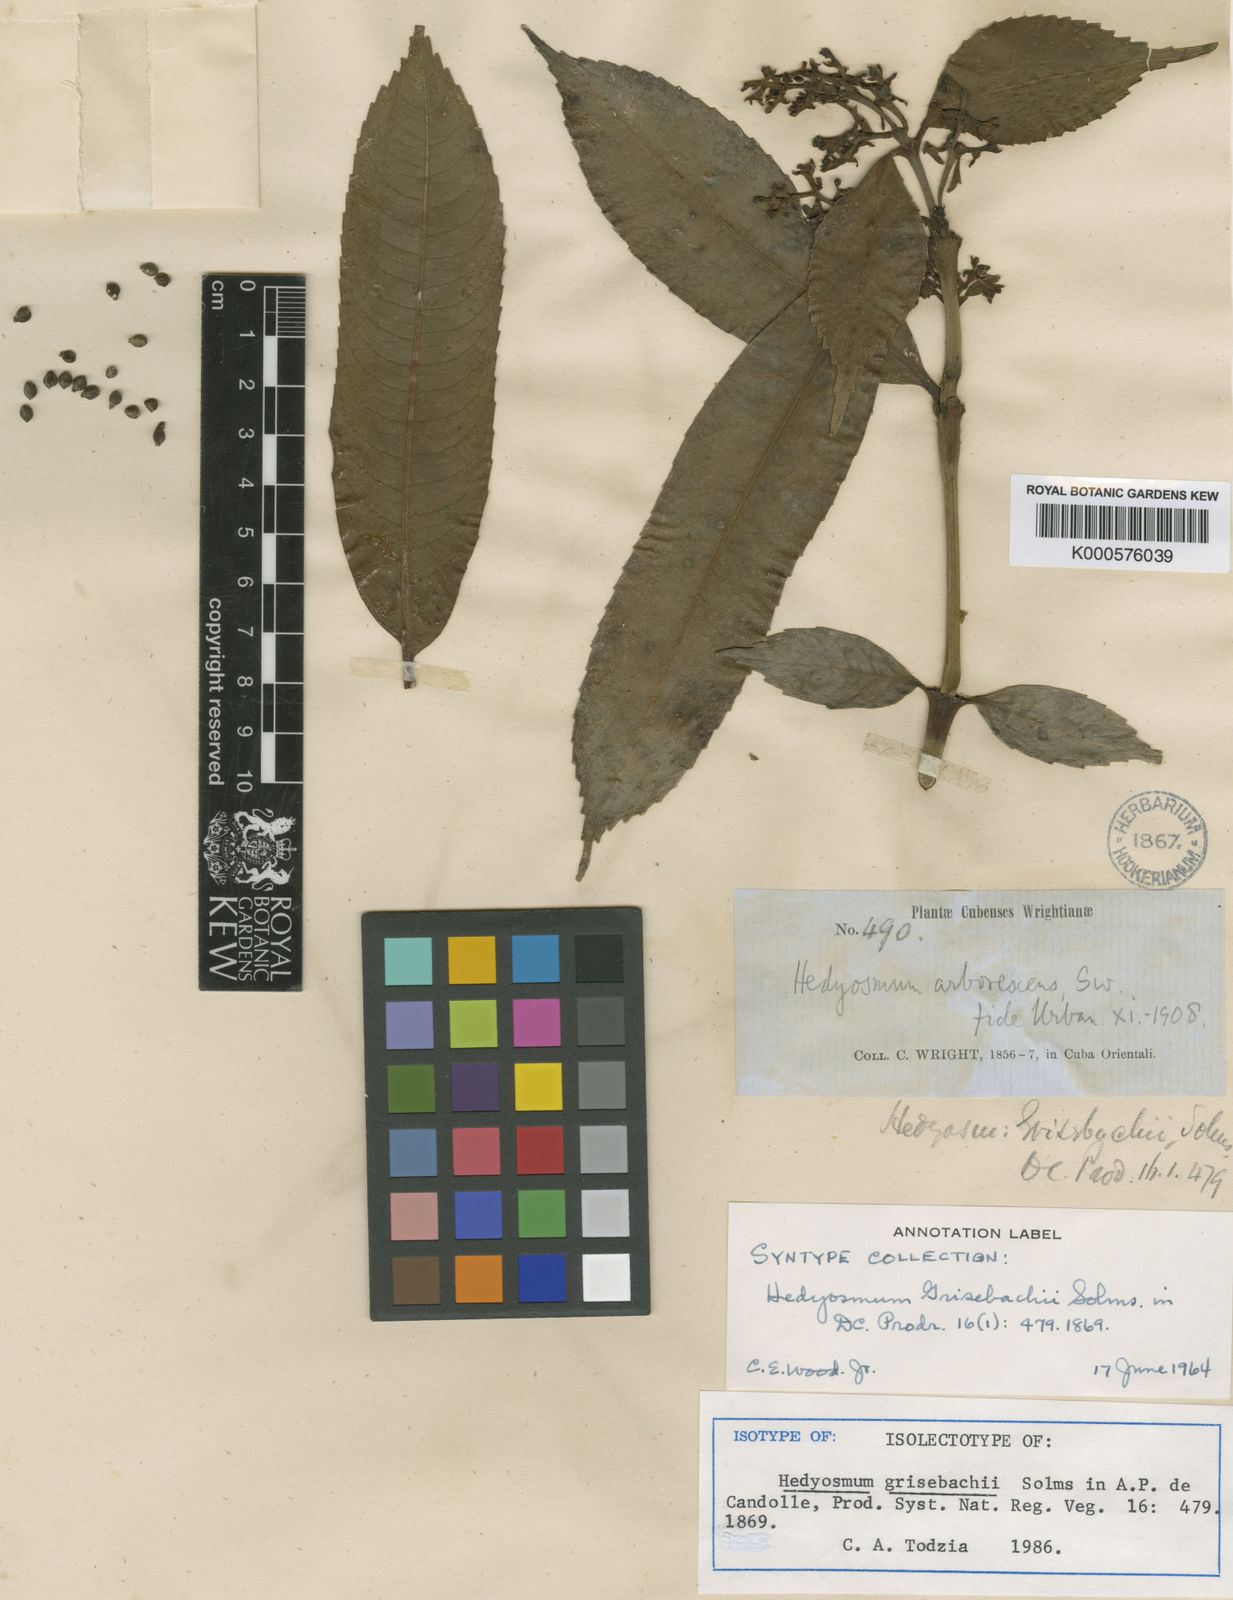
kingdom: Plantae
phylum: Tracheophyta
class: Magnoliopsida
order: Chloranthales
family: Chloranthaceae
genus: Hedyosmum
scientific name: Hedyosmum grisebachii
